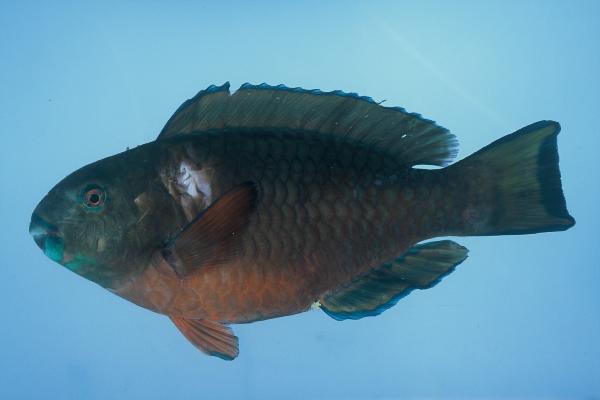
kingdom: Animalia
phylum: Chordata
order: Perciformes
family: Scaridae
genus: Chlorurus
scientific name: Chlorurus strongylocephalus
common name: Steephead parrotfish
